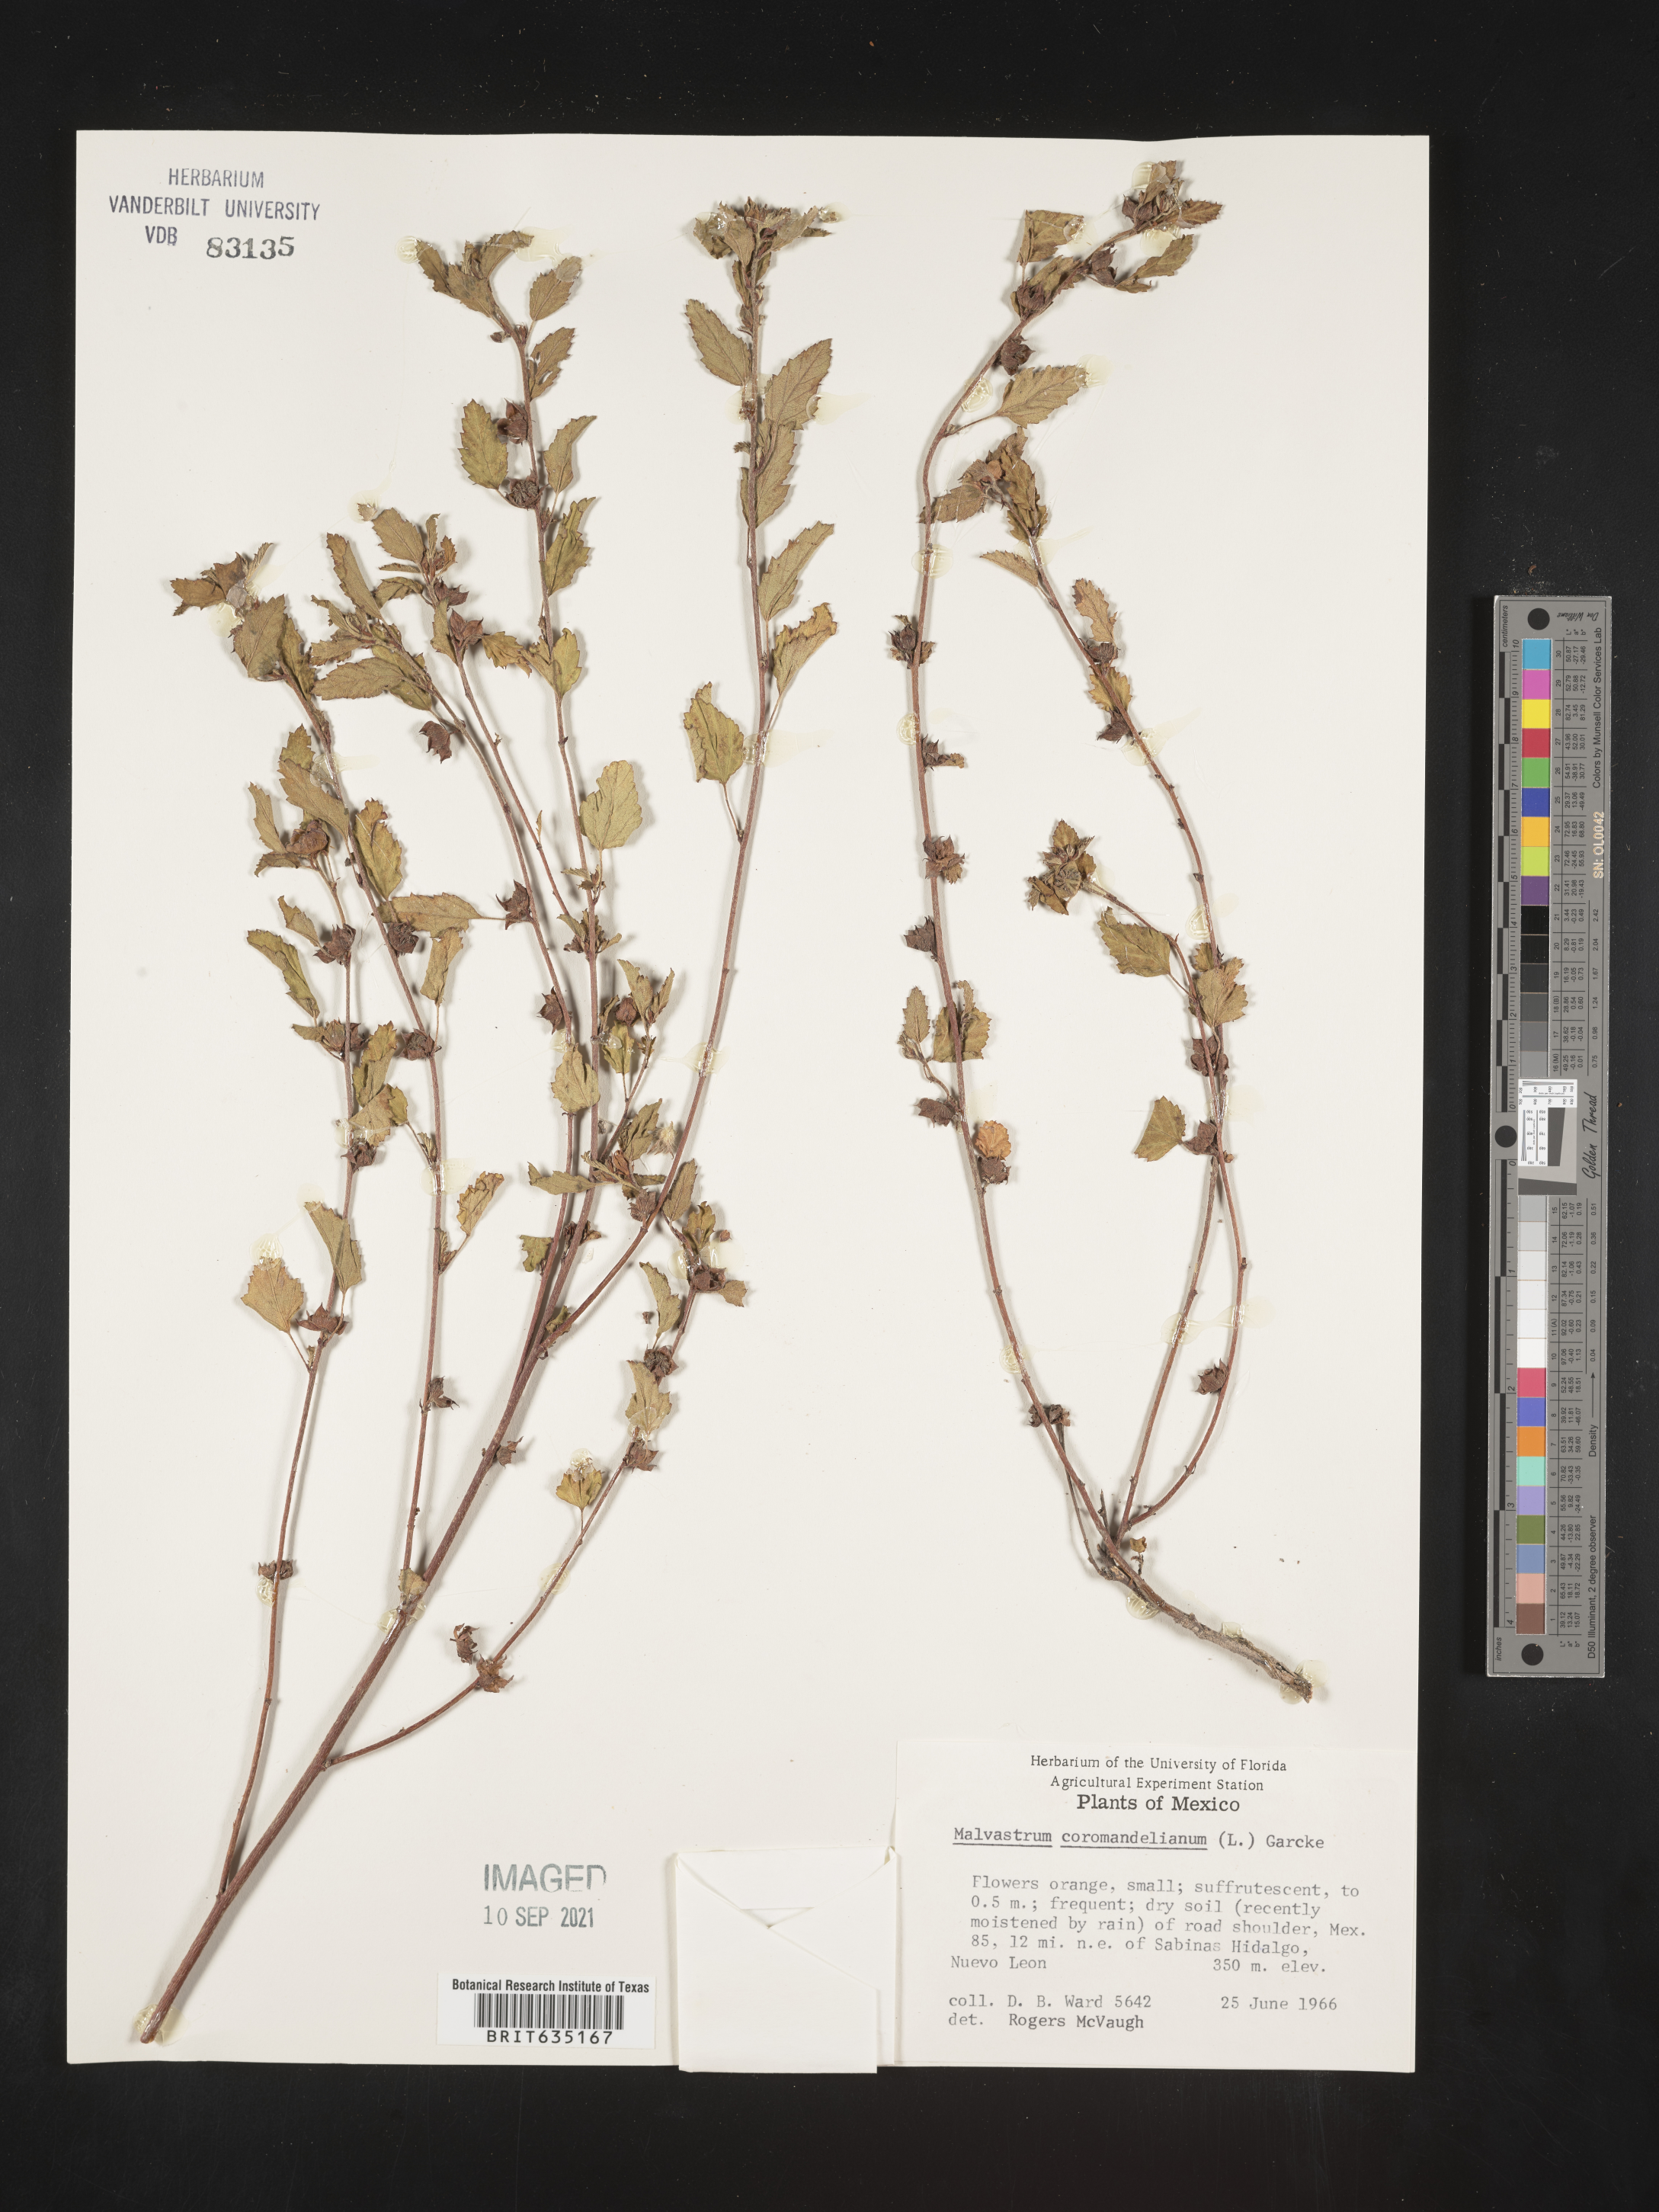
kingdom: Plantae
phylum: Tracheophyta
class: Magnoliopsida
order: Malvales
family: Malvaceae
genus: Malvastrum
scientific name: Malvastrum
